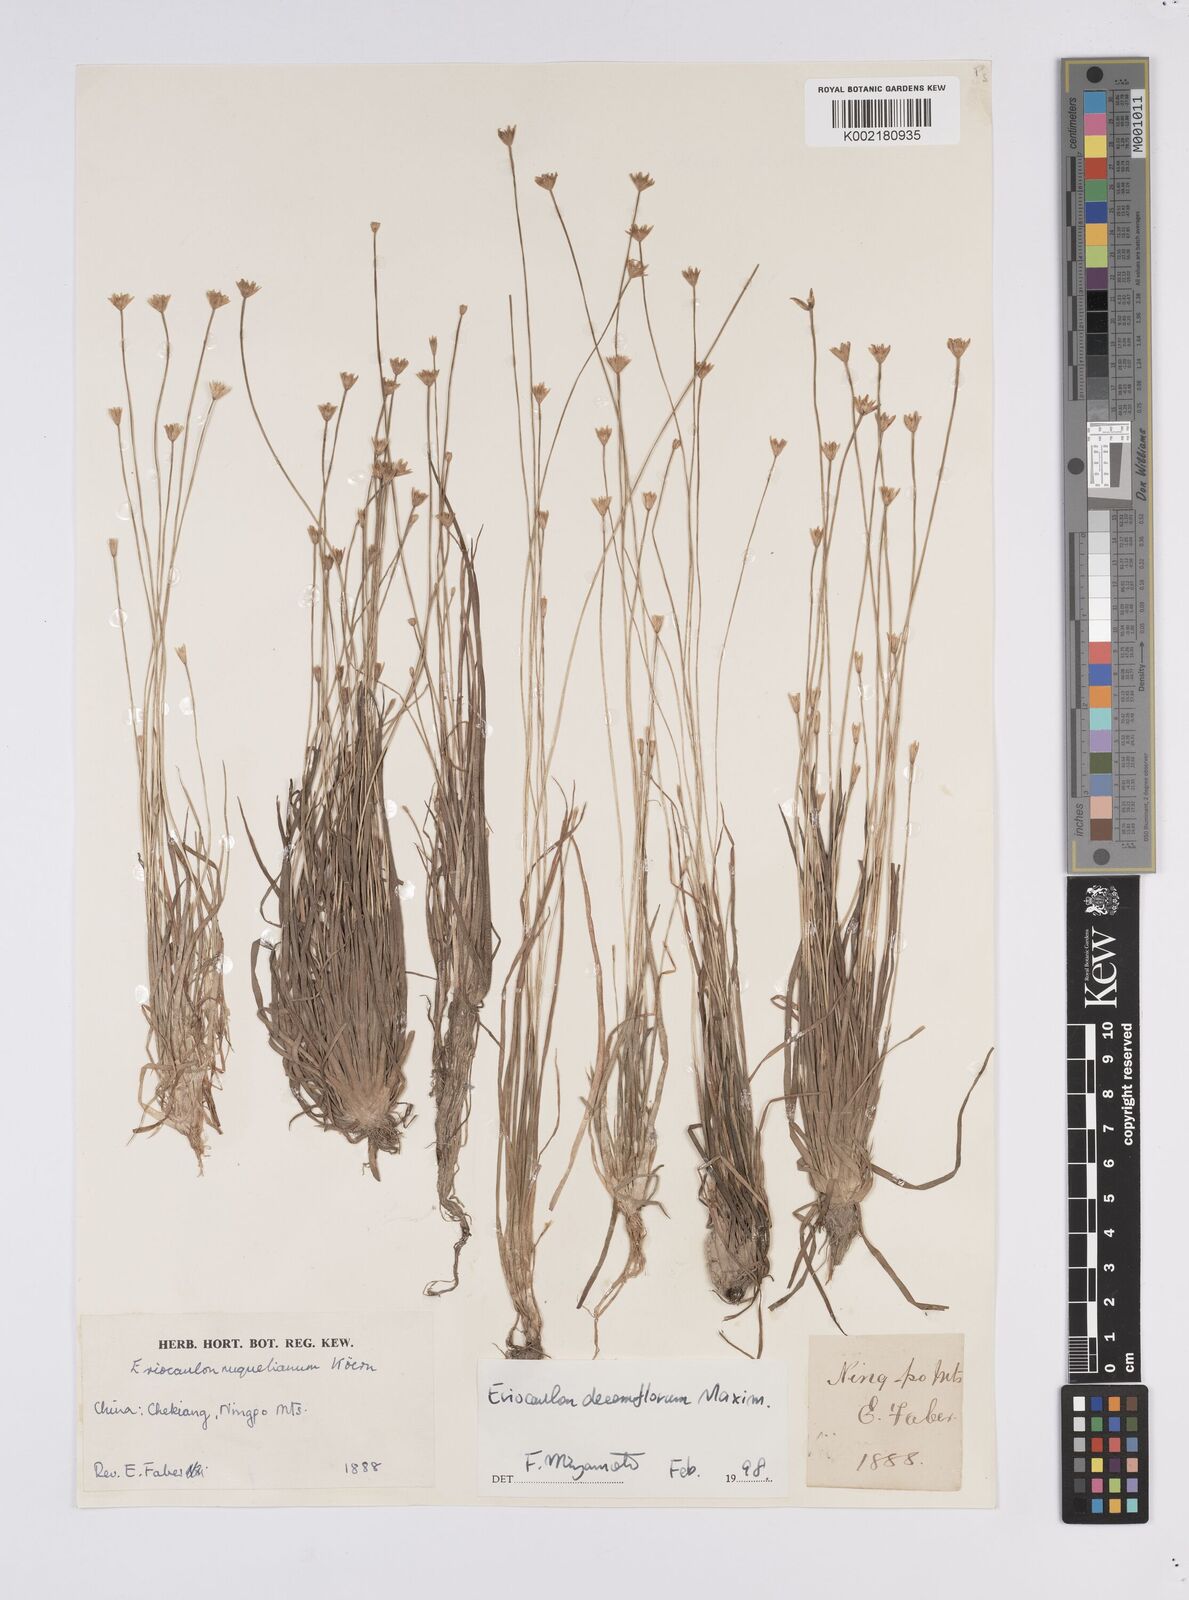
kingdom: Plantae
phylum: Tracheophyta
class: Liliopsida
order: Poales
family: Eriocaulaceae
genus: Eriocaulon
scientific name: Eriocaulon decemflorum
